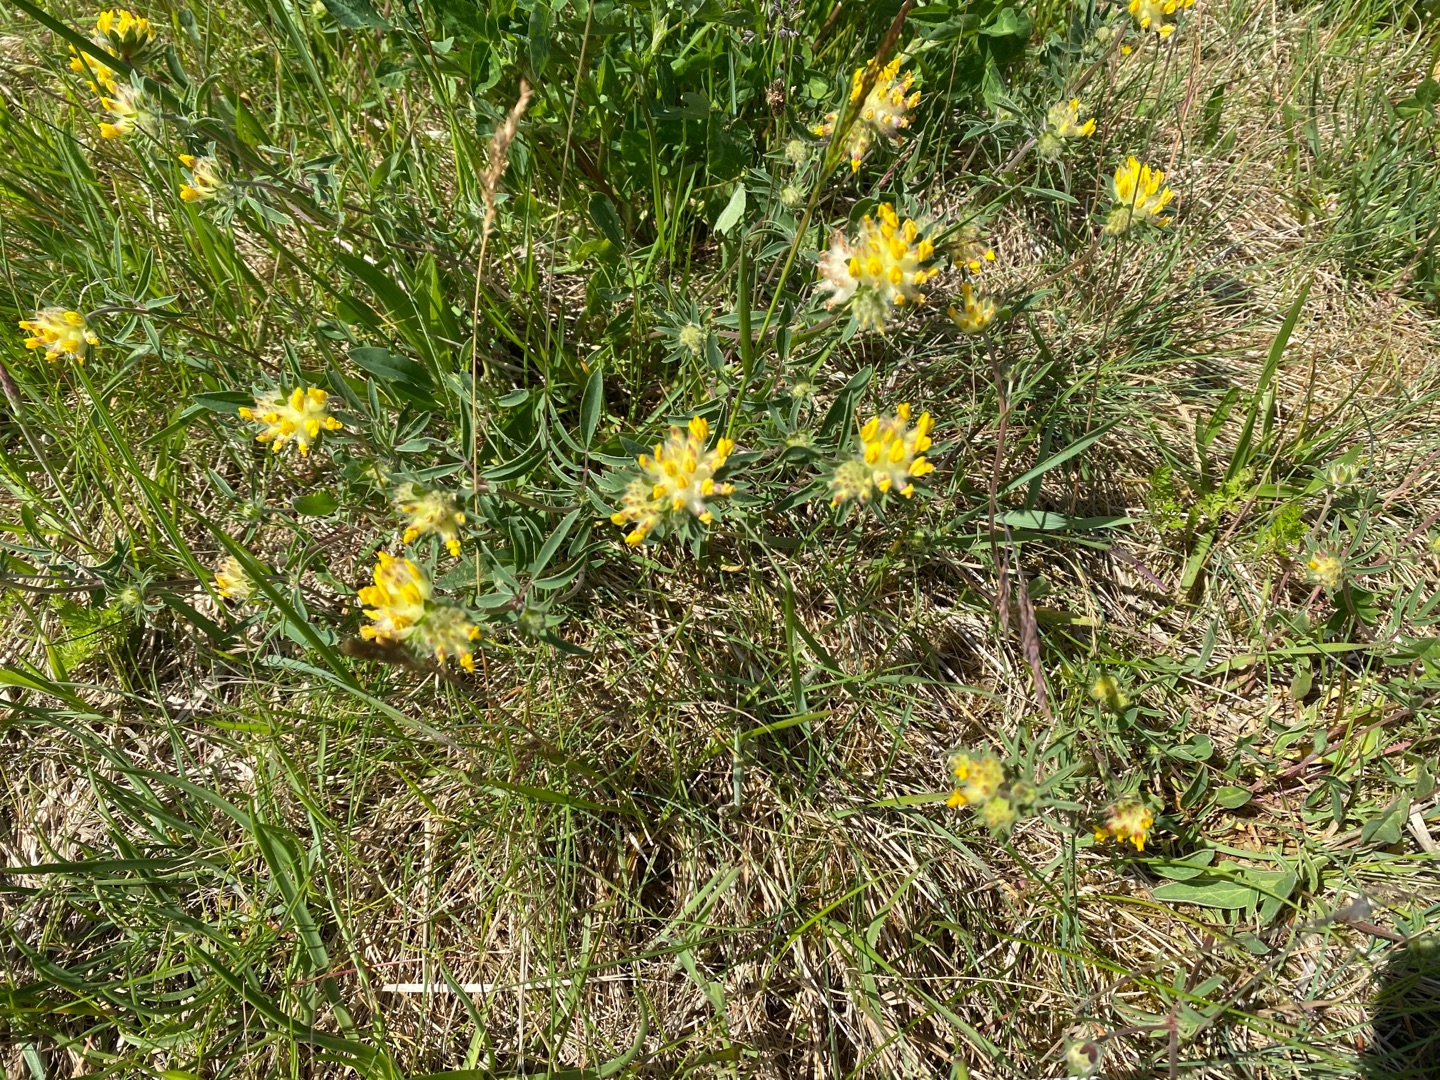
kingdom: Plantae
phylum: Tracheophyta
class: Magnoliopsida
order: Fabales
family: Fabaceae
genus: Anthyllis
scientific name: Anthyllis vulneraria
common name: Rundbælg
